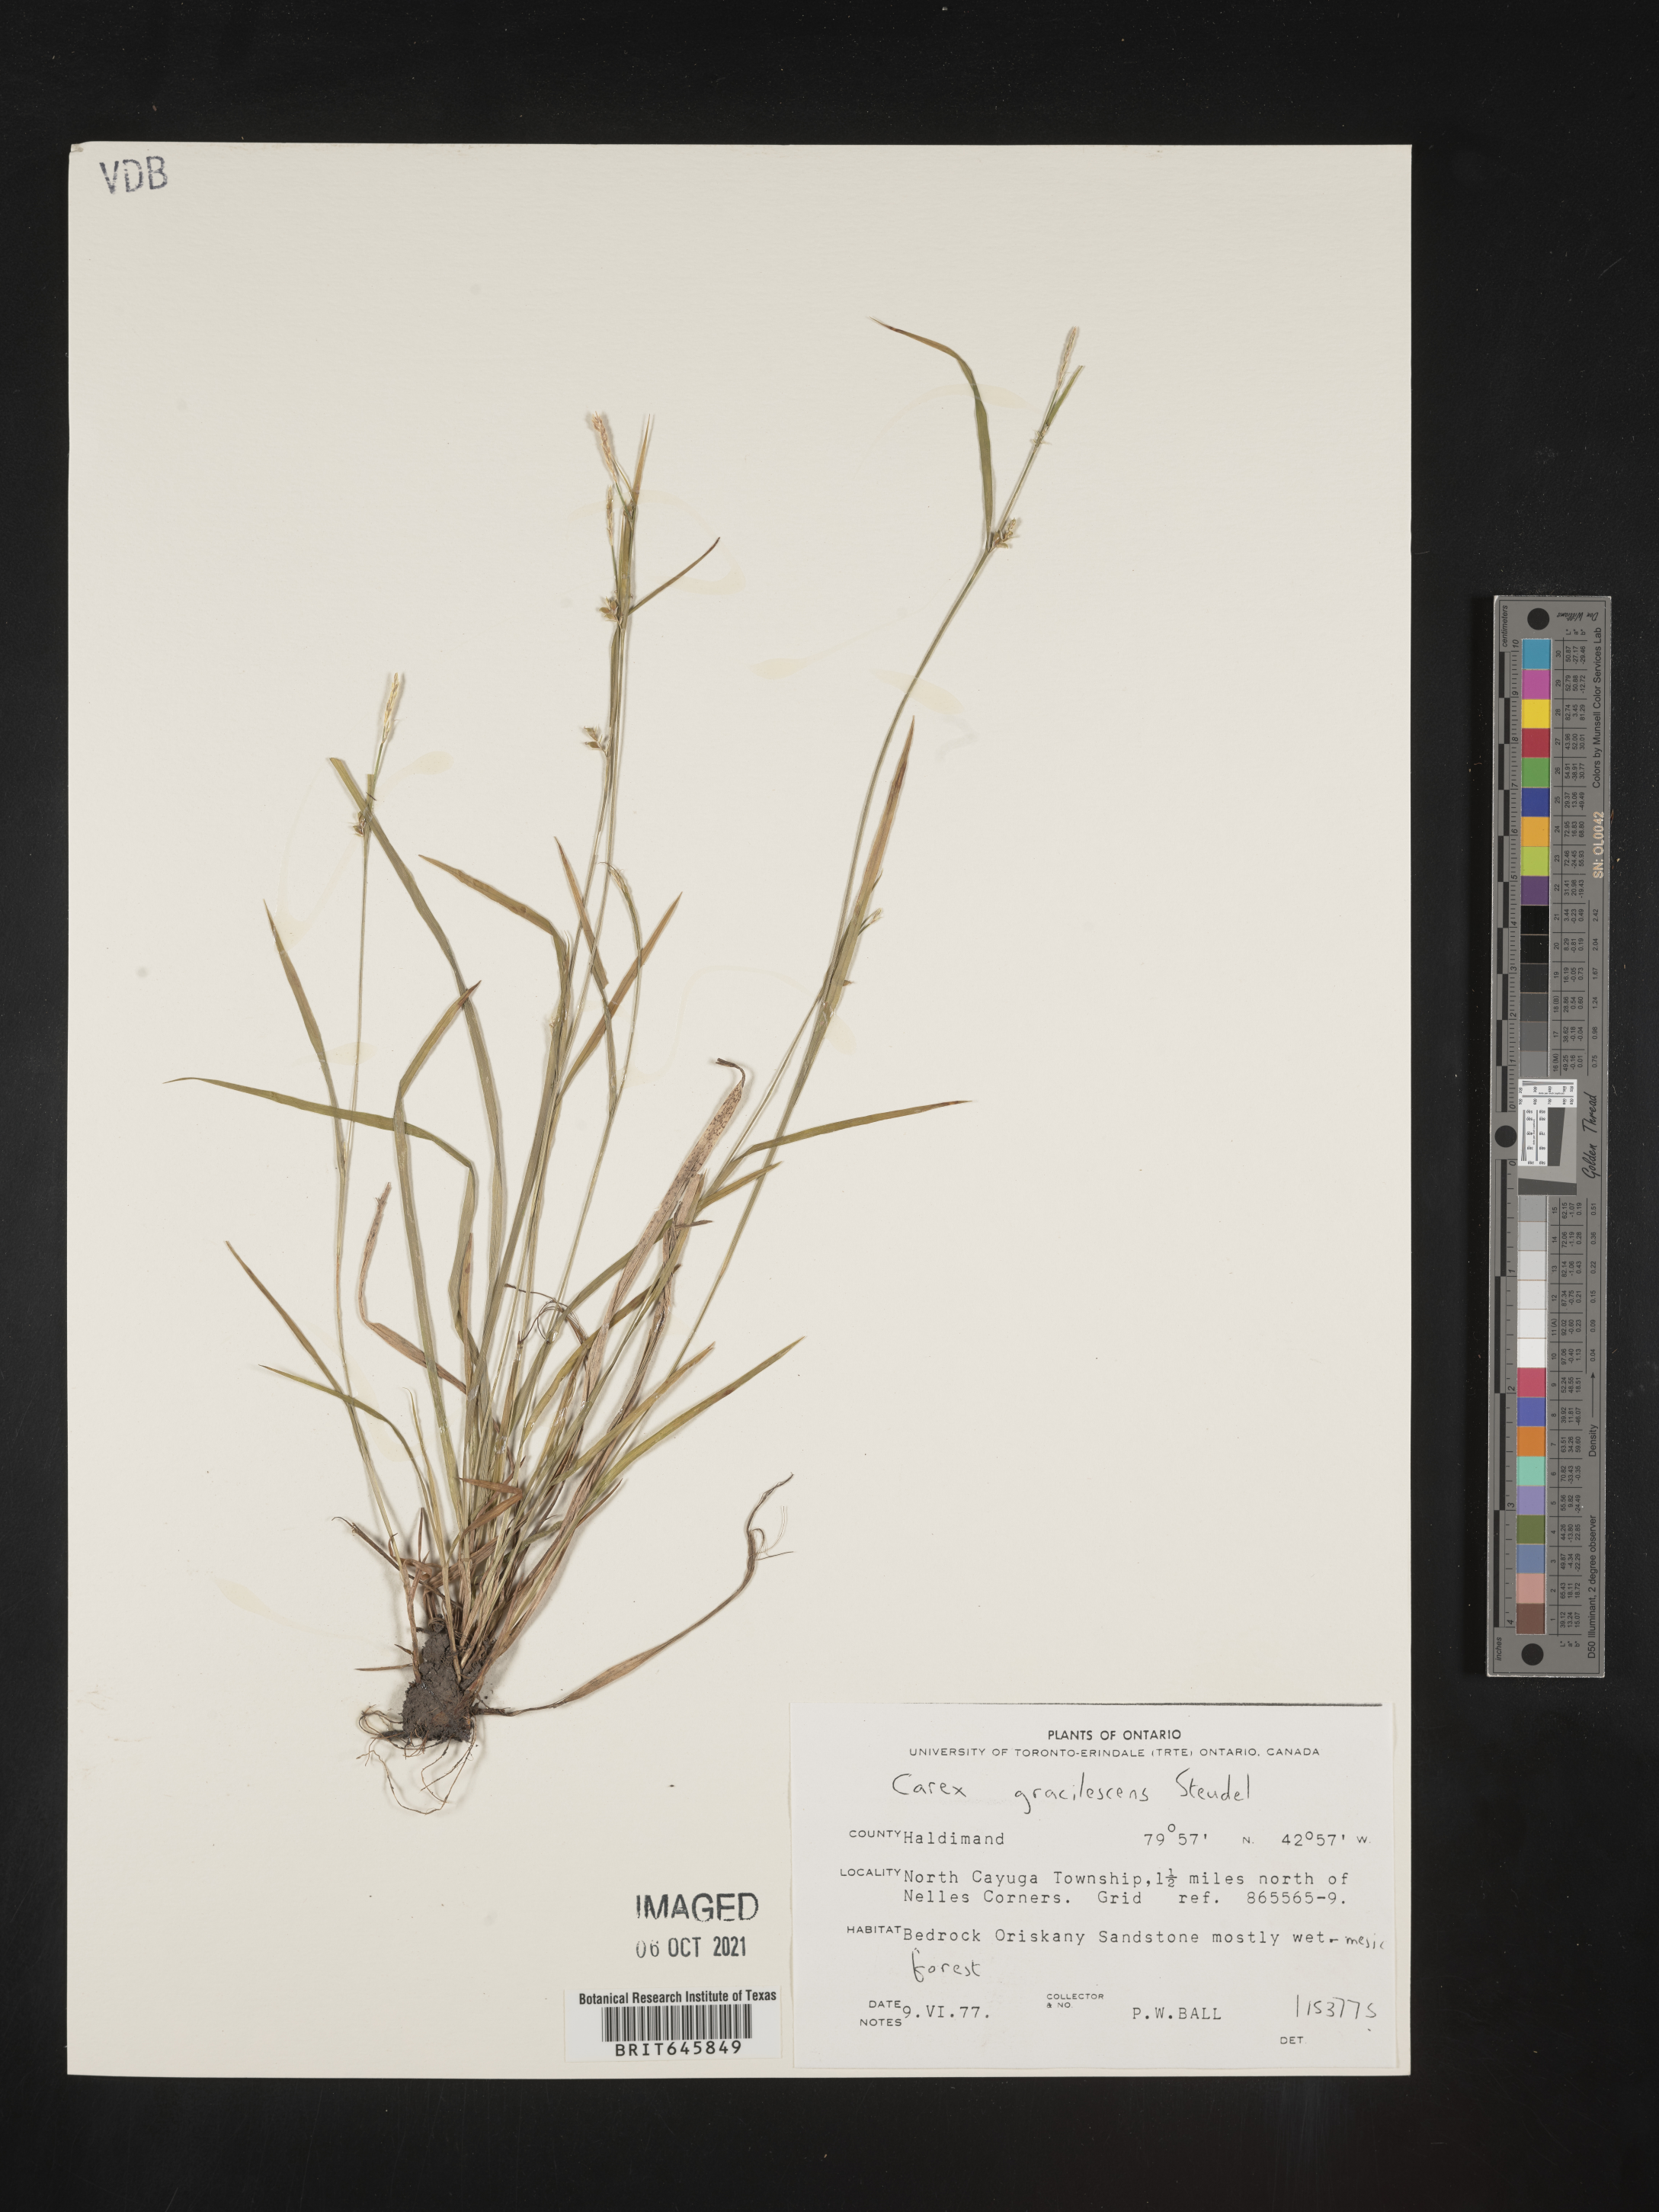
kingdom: Plantae
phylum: Tracheophyta
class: Liliopsida
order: Poales
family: Cyperaceae
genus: Carex
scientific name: Carex laxiflora
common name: Beech wood sedge
